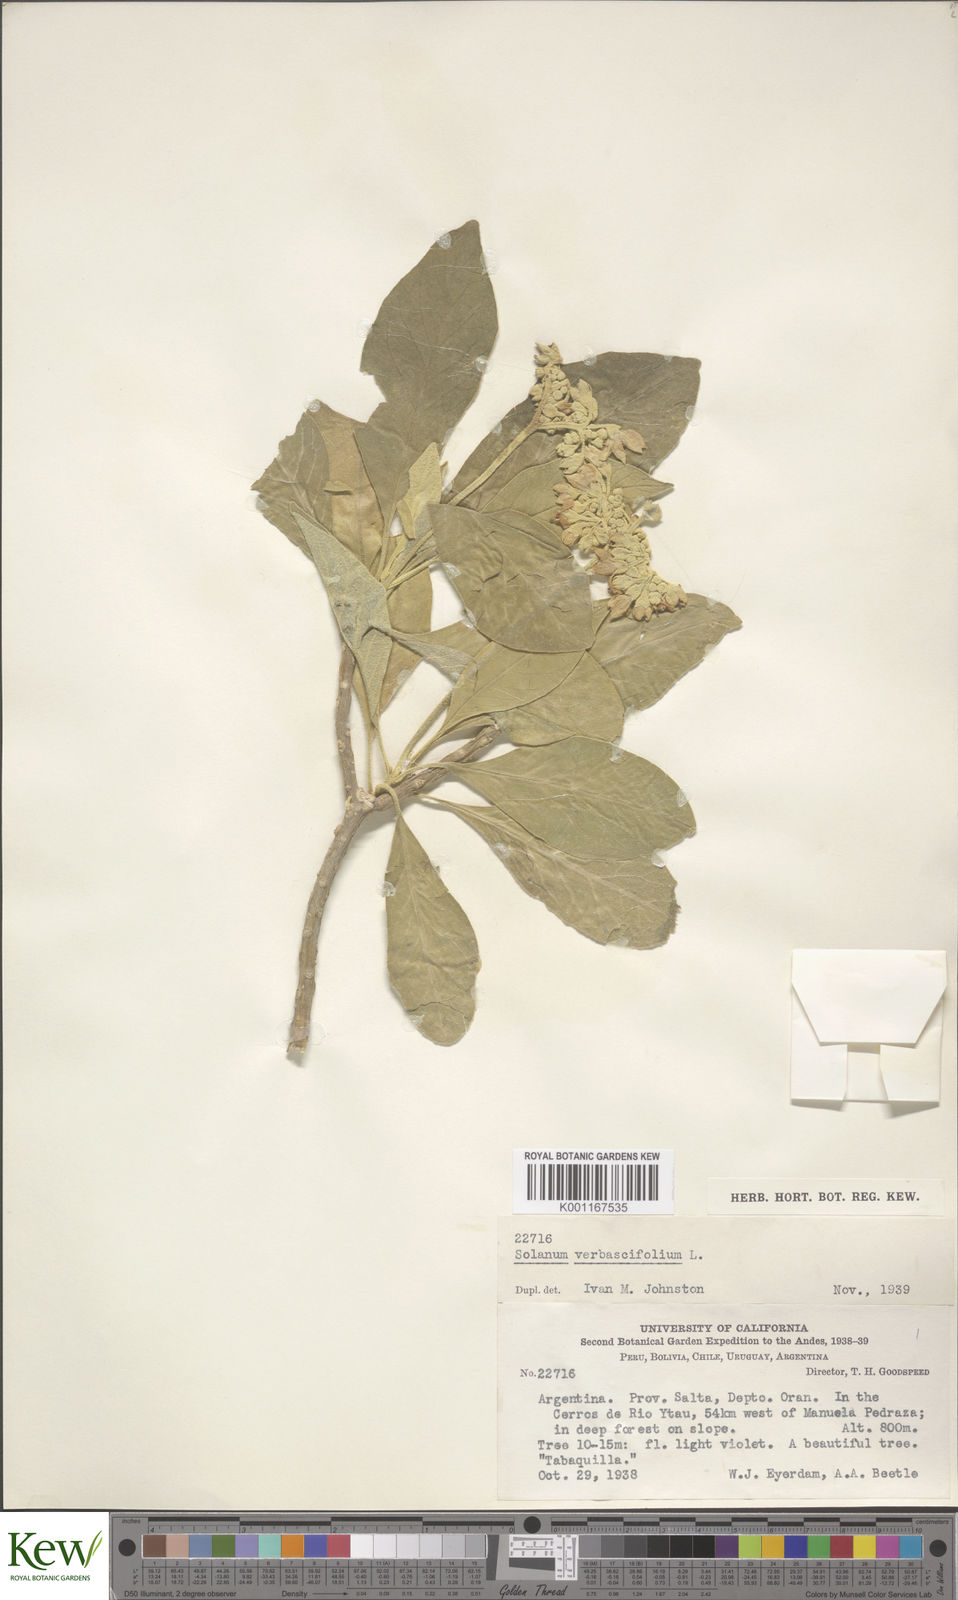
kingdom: Plantae
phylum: Tracheophyta
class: Magnoliopsida
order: Solanales
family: Solanaceae
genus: Solanum
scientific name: Solanum erianthum
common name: Tobacco-tree
